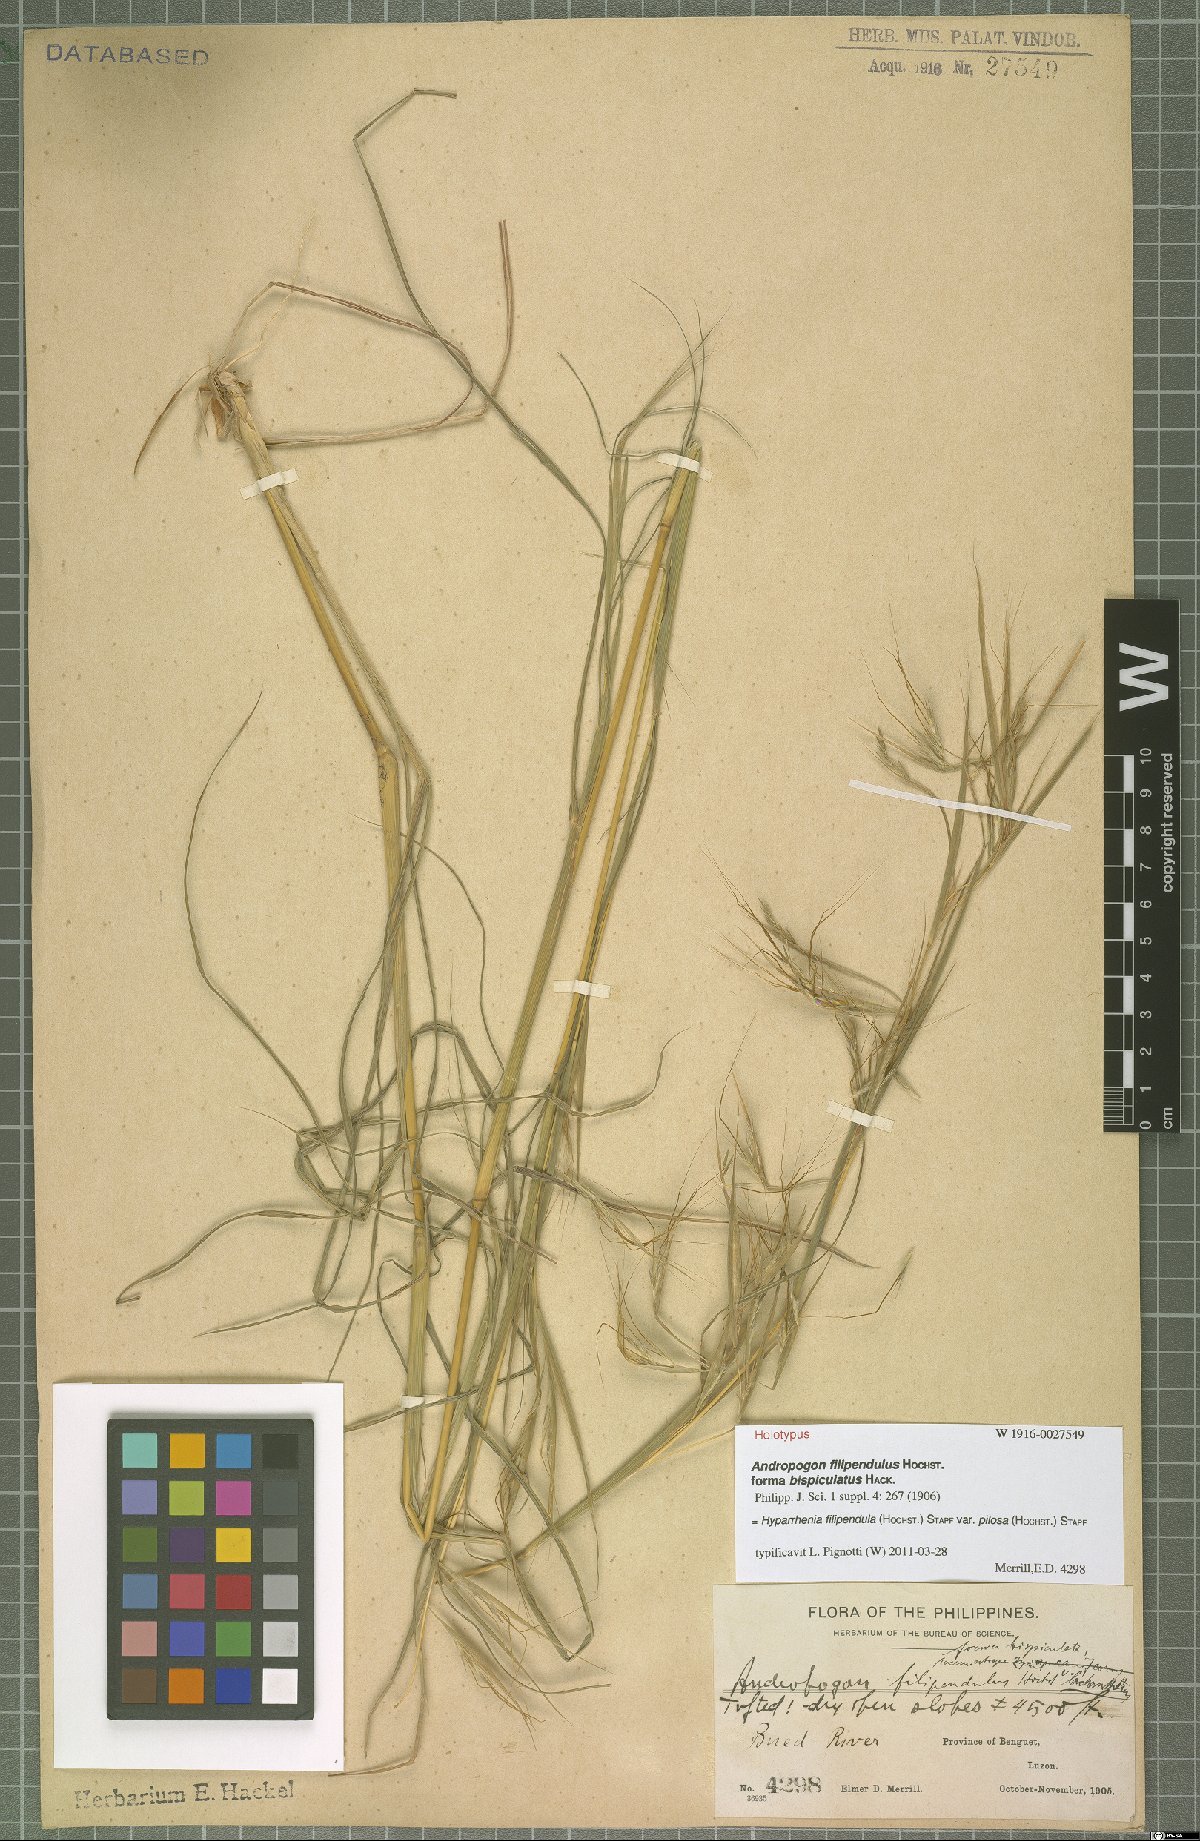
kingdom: Plantae
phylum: Tracheophyta
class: Liliopsida
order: Poales
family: Poaceae
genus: Hyparrhenia
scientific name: Hyparrhenia filipendula
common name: Tambookie grass
